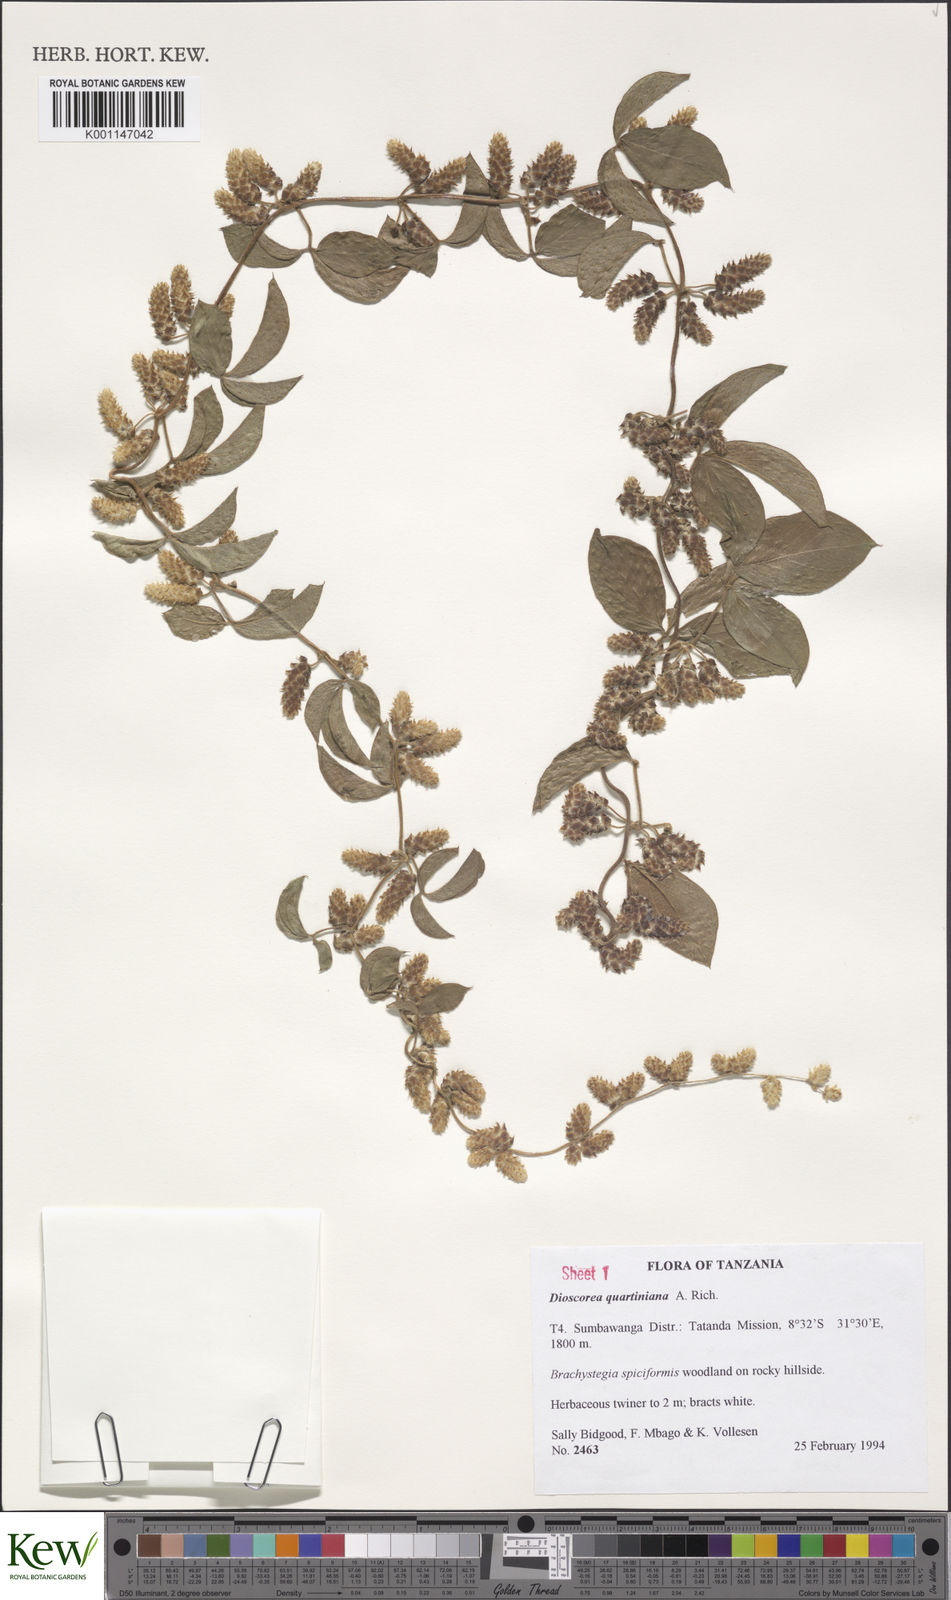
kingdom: Plantae
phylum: Tracheophyta
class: Liliopsida
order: Dioscoreales
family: Dioscoreaceae
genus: Dioscorea
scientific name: Dioscorea quartiniana
